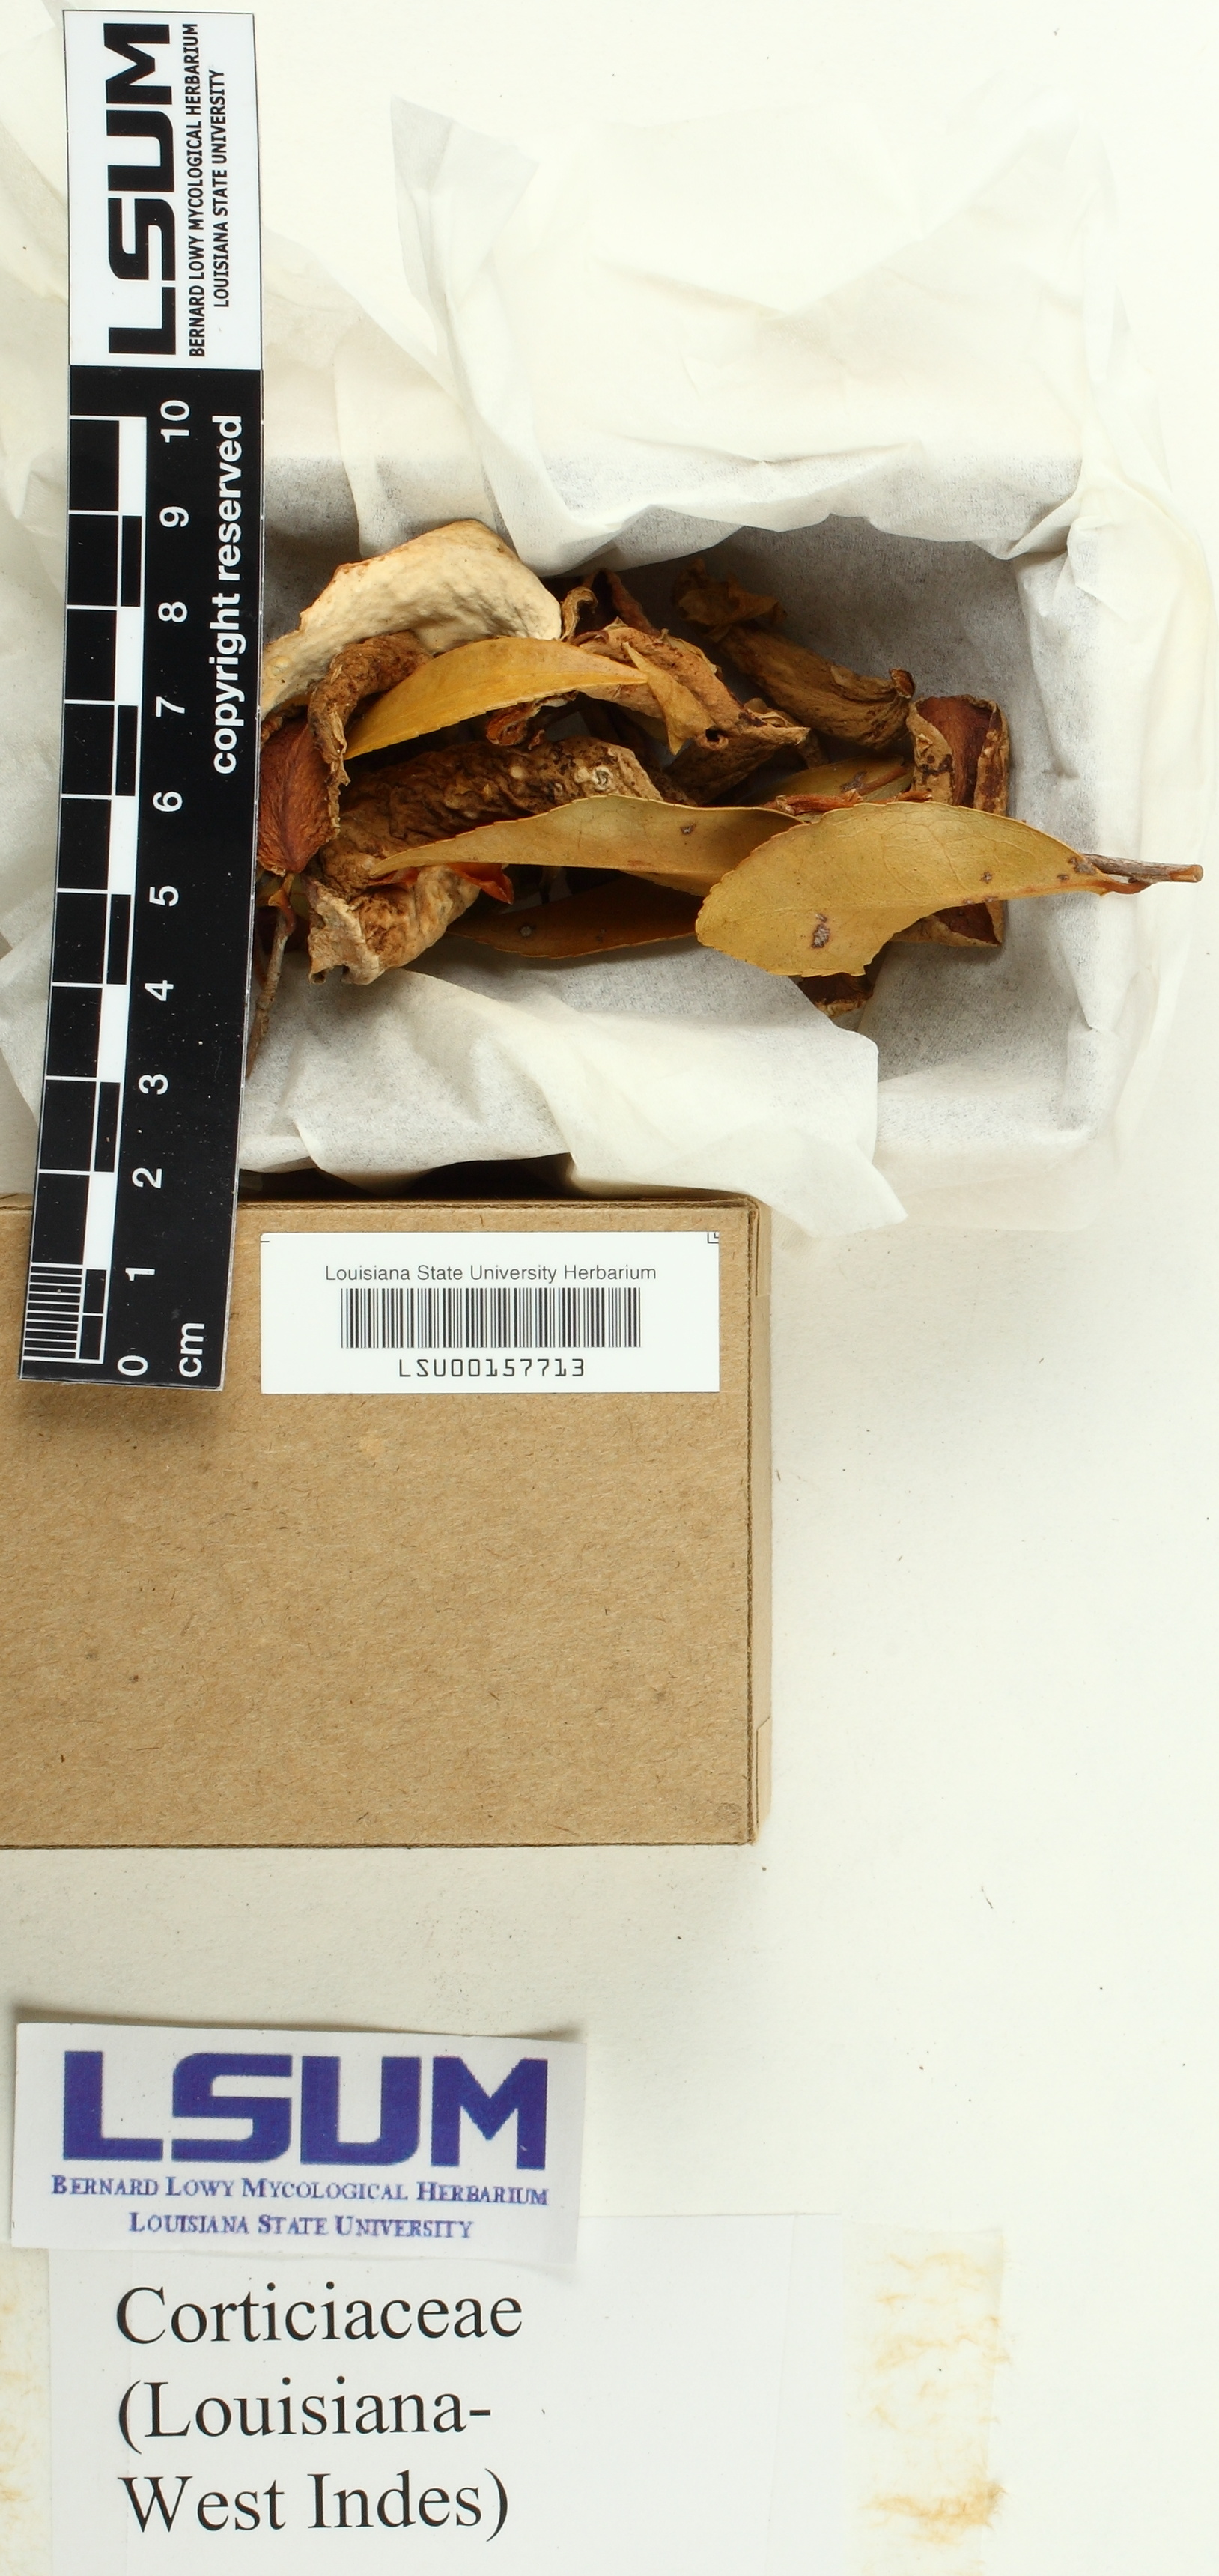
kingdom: Fungi
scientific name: Fungi
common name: Fungi
